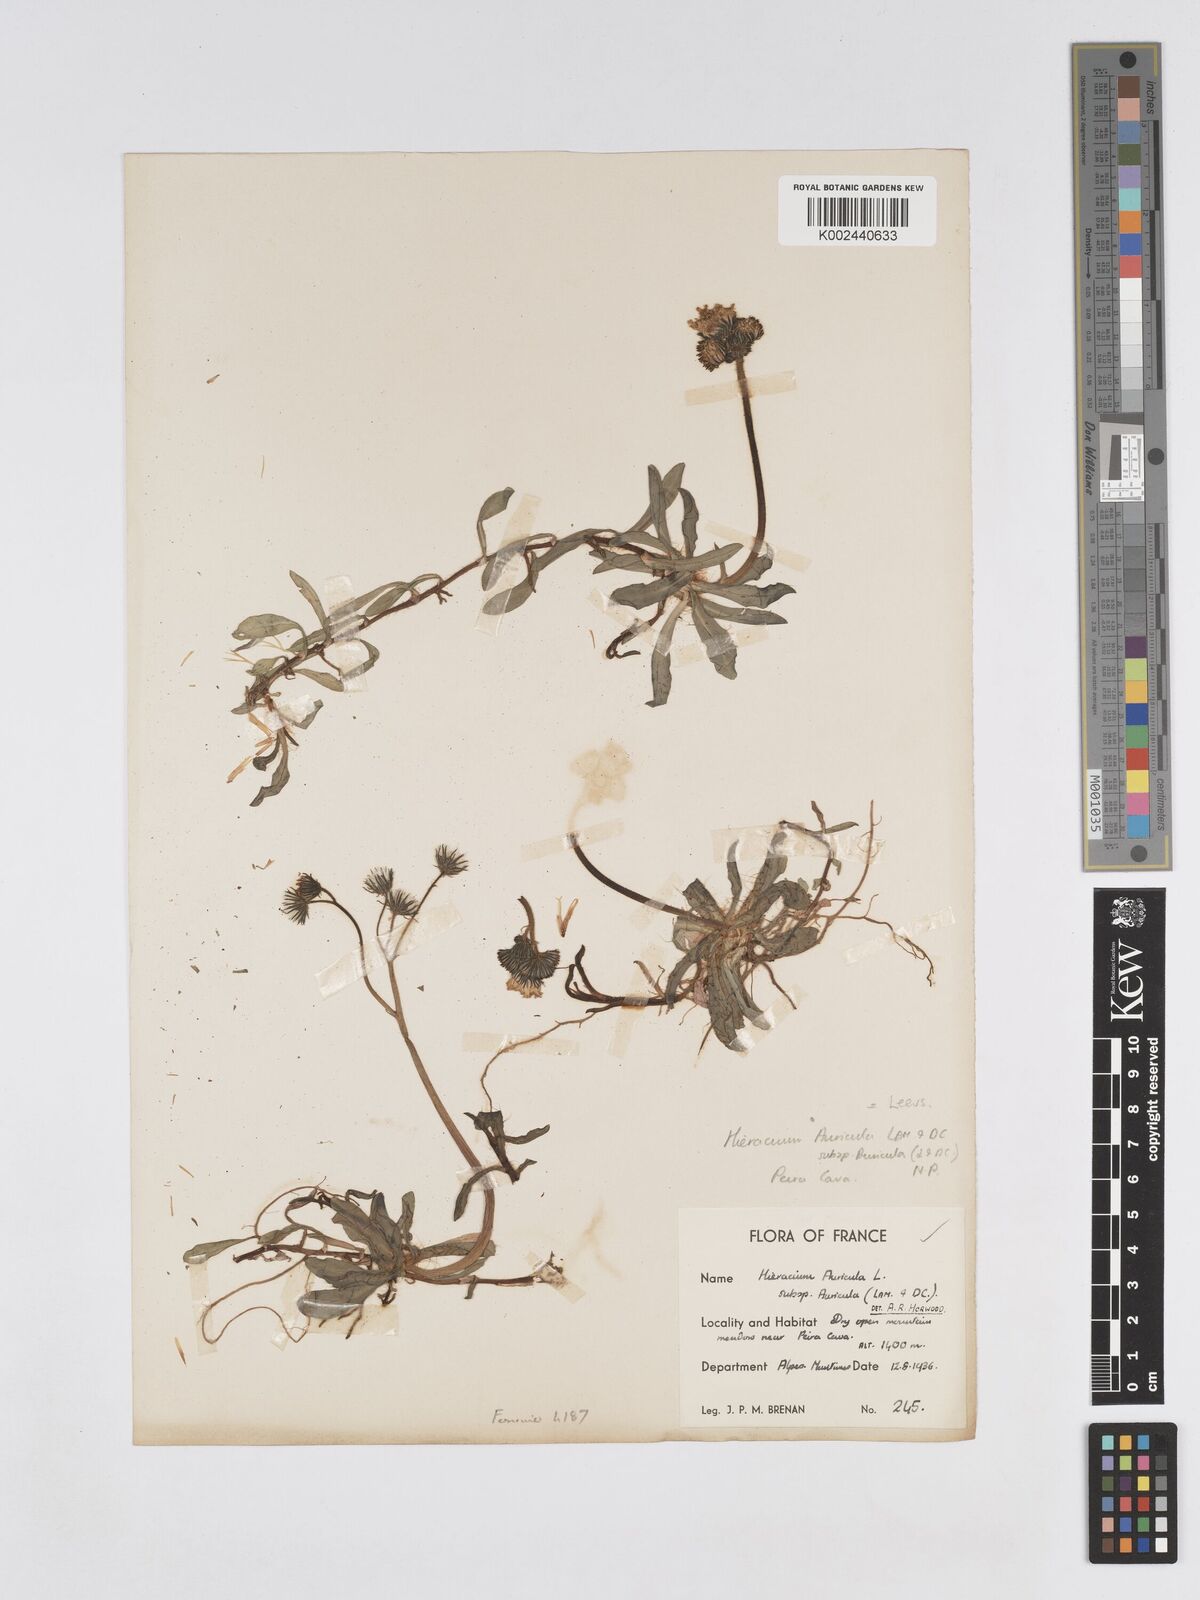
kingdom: Plantae
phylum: Tracheophyta
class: Magnoliopsida
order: Asterales
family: Asteraceae
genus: Pilosella
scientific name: Pilosella floribunda
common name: Glaucous hawkweed
